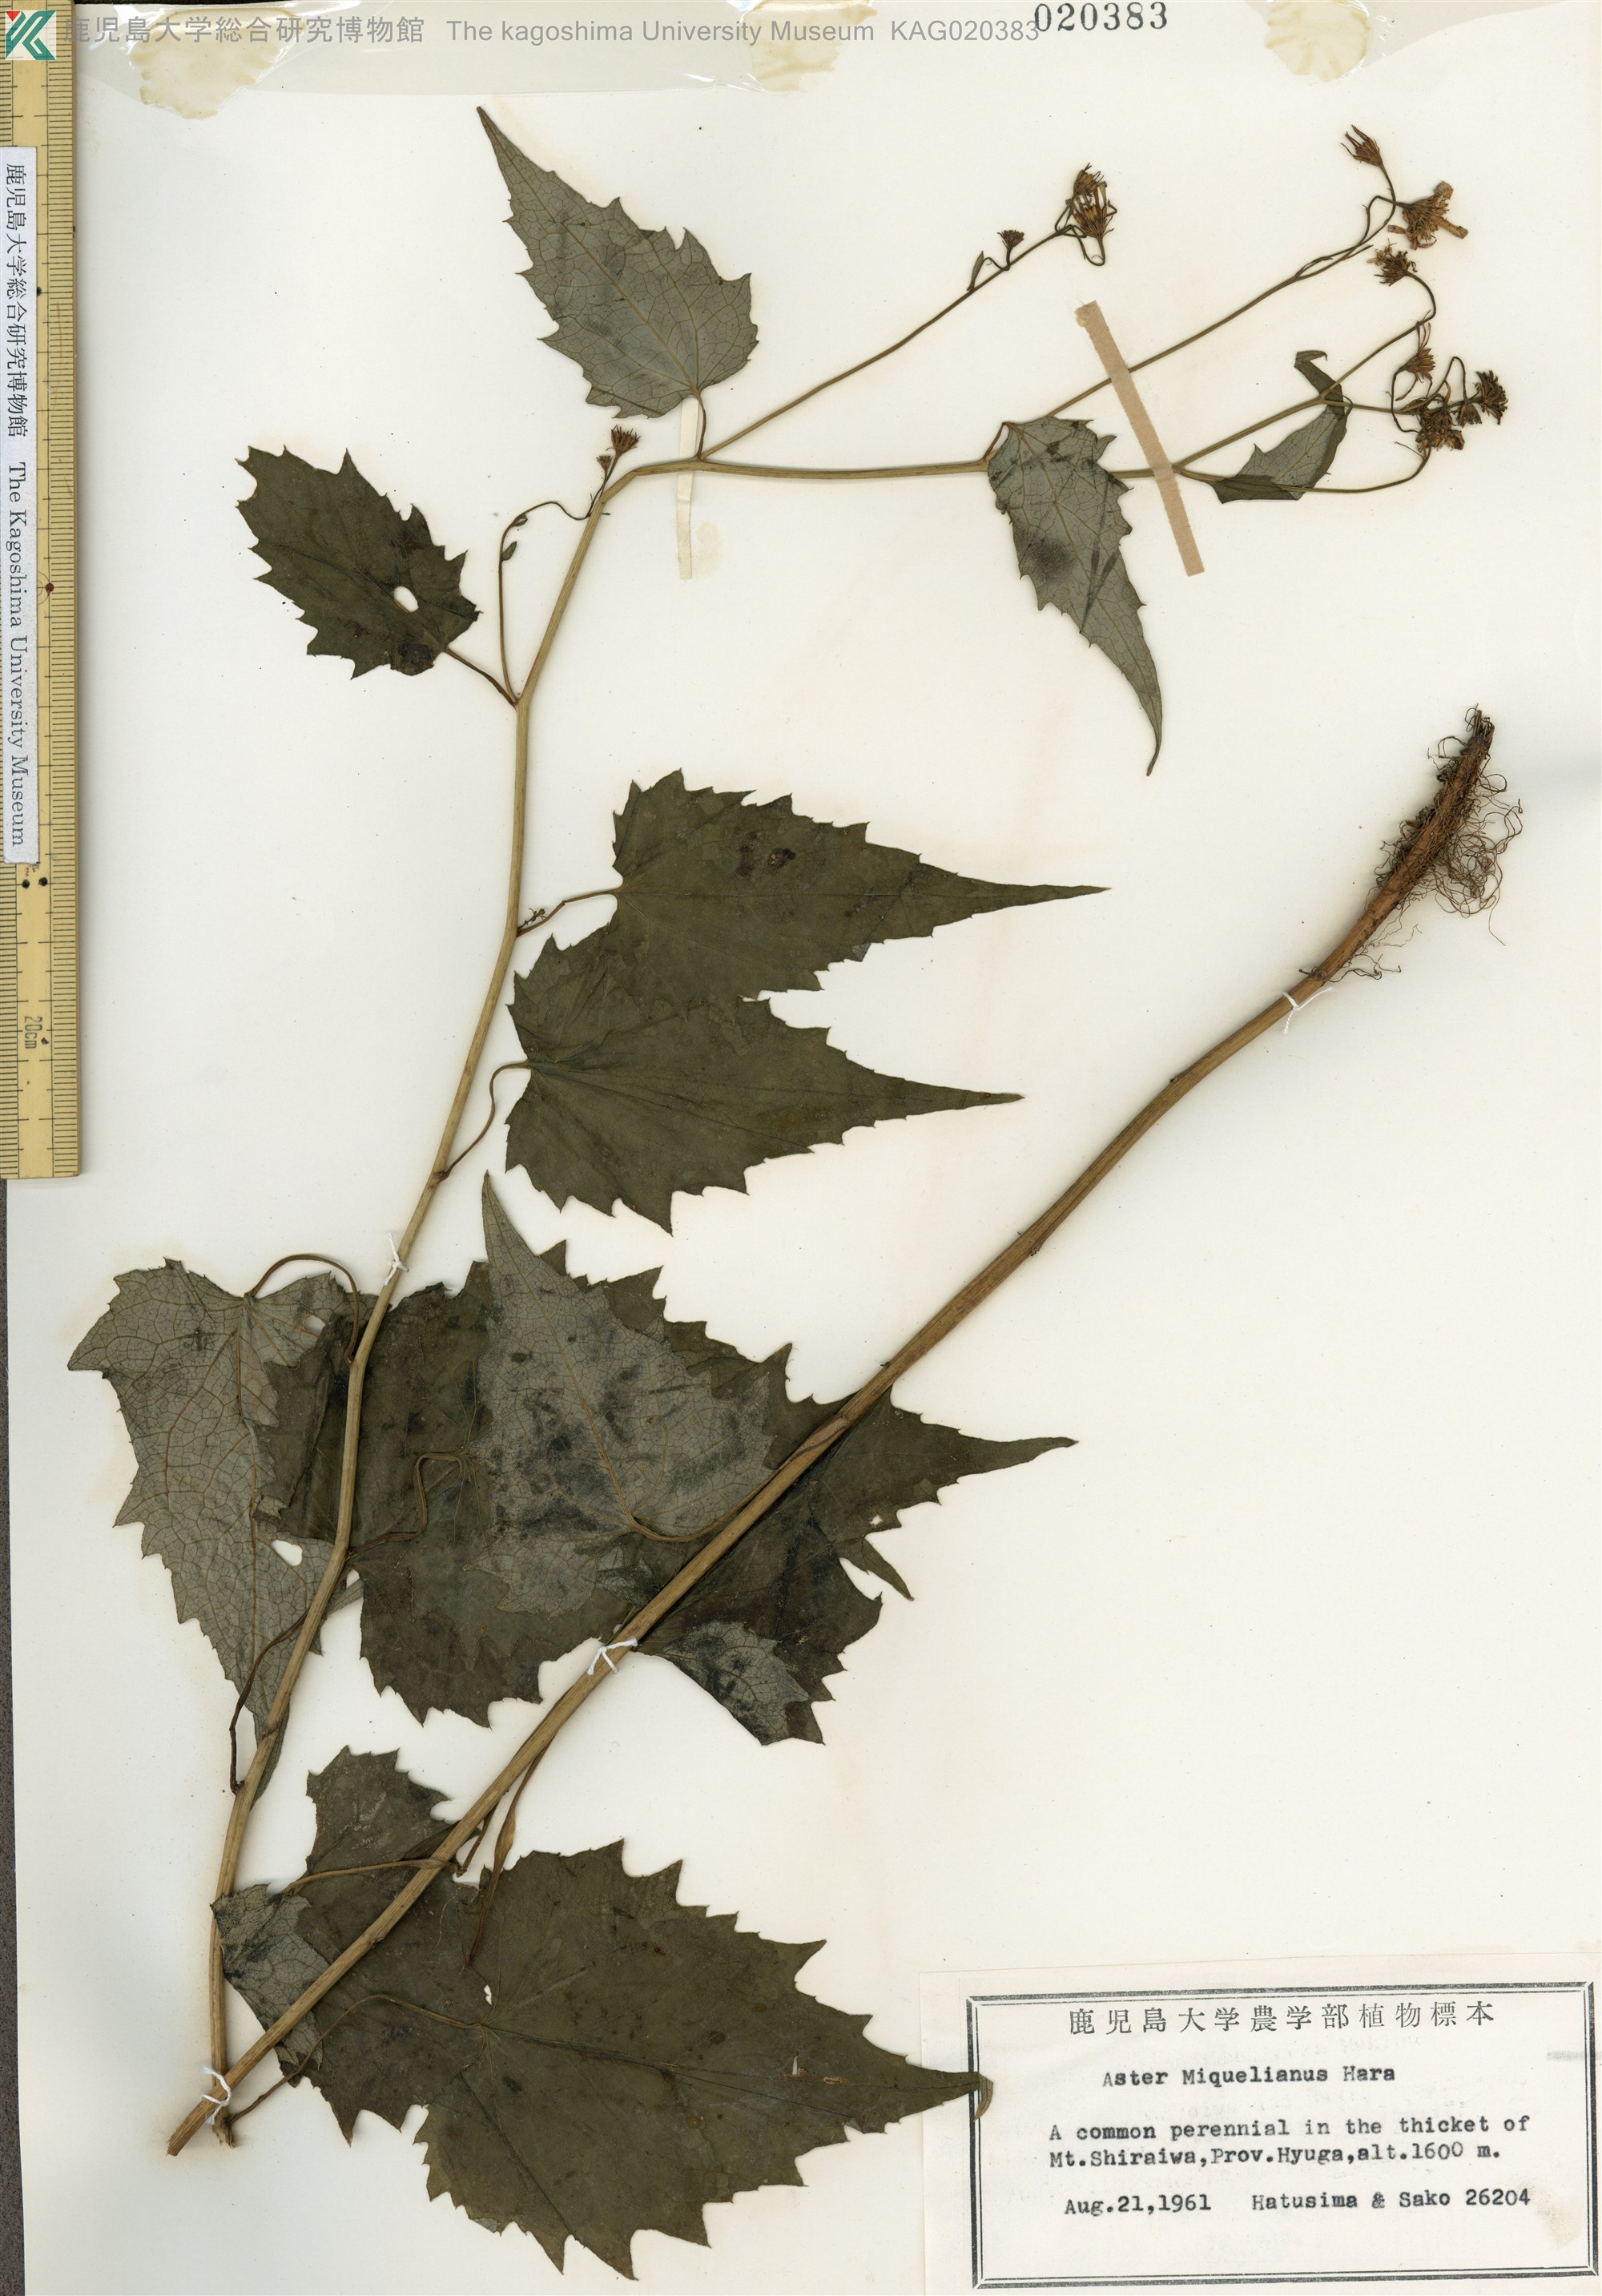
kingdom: Plantae
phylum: Tracheophyta
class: Magnoliopsida
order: Asterales
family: Asteraceae
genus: Cardiagyris
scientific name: Cardiagyris miquelianus
